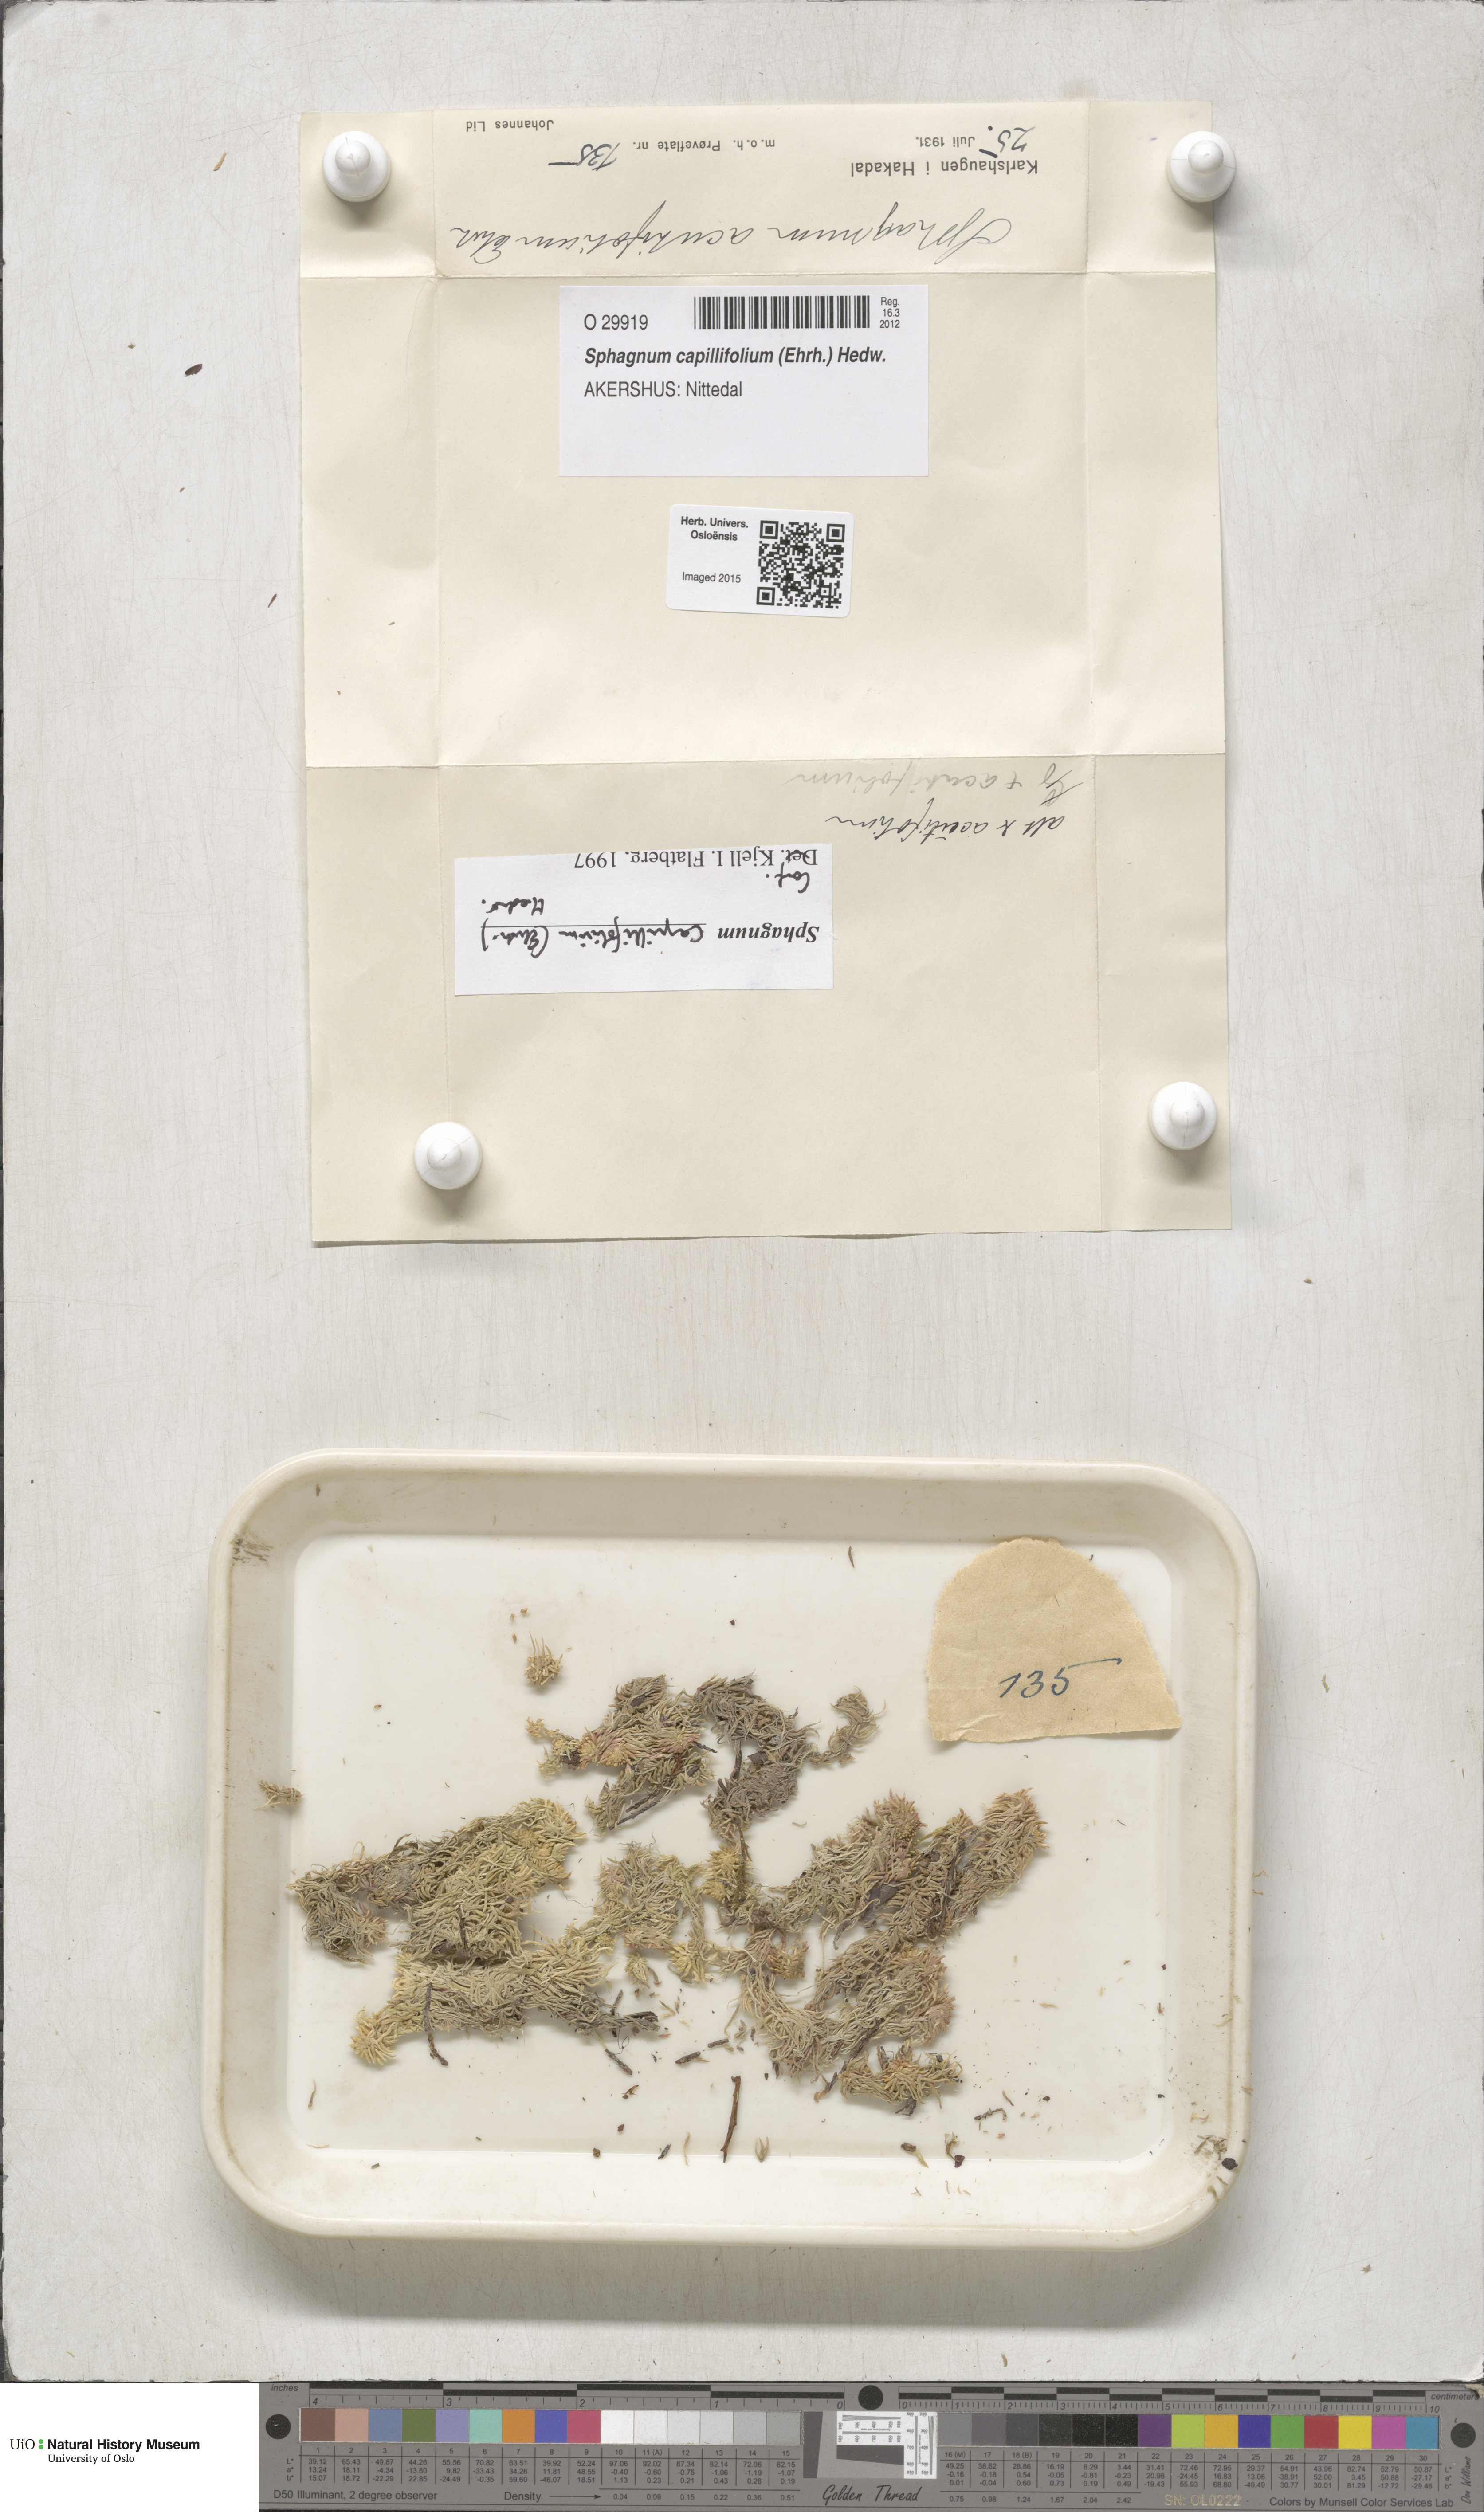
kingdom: Plantae
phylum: Bryophyta
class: Sphagnopsida
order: Sphagnales
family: Sphagnaceae
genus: Sphagnum
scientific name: Sphagnum capillifolium
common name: Small red peat moss
